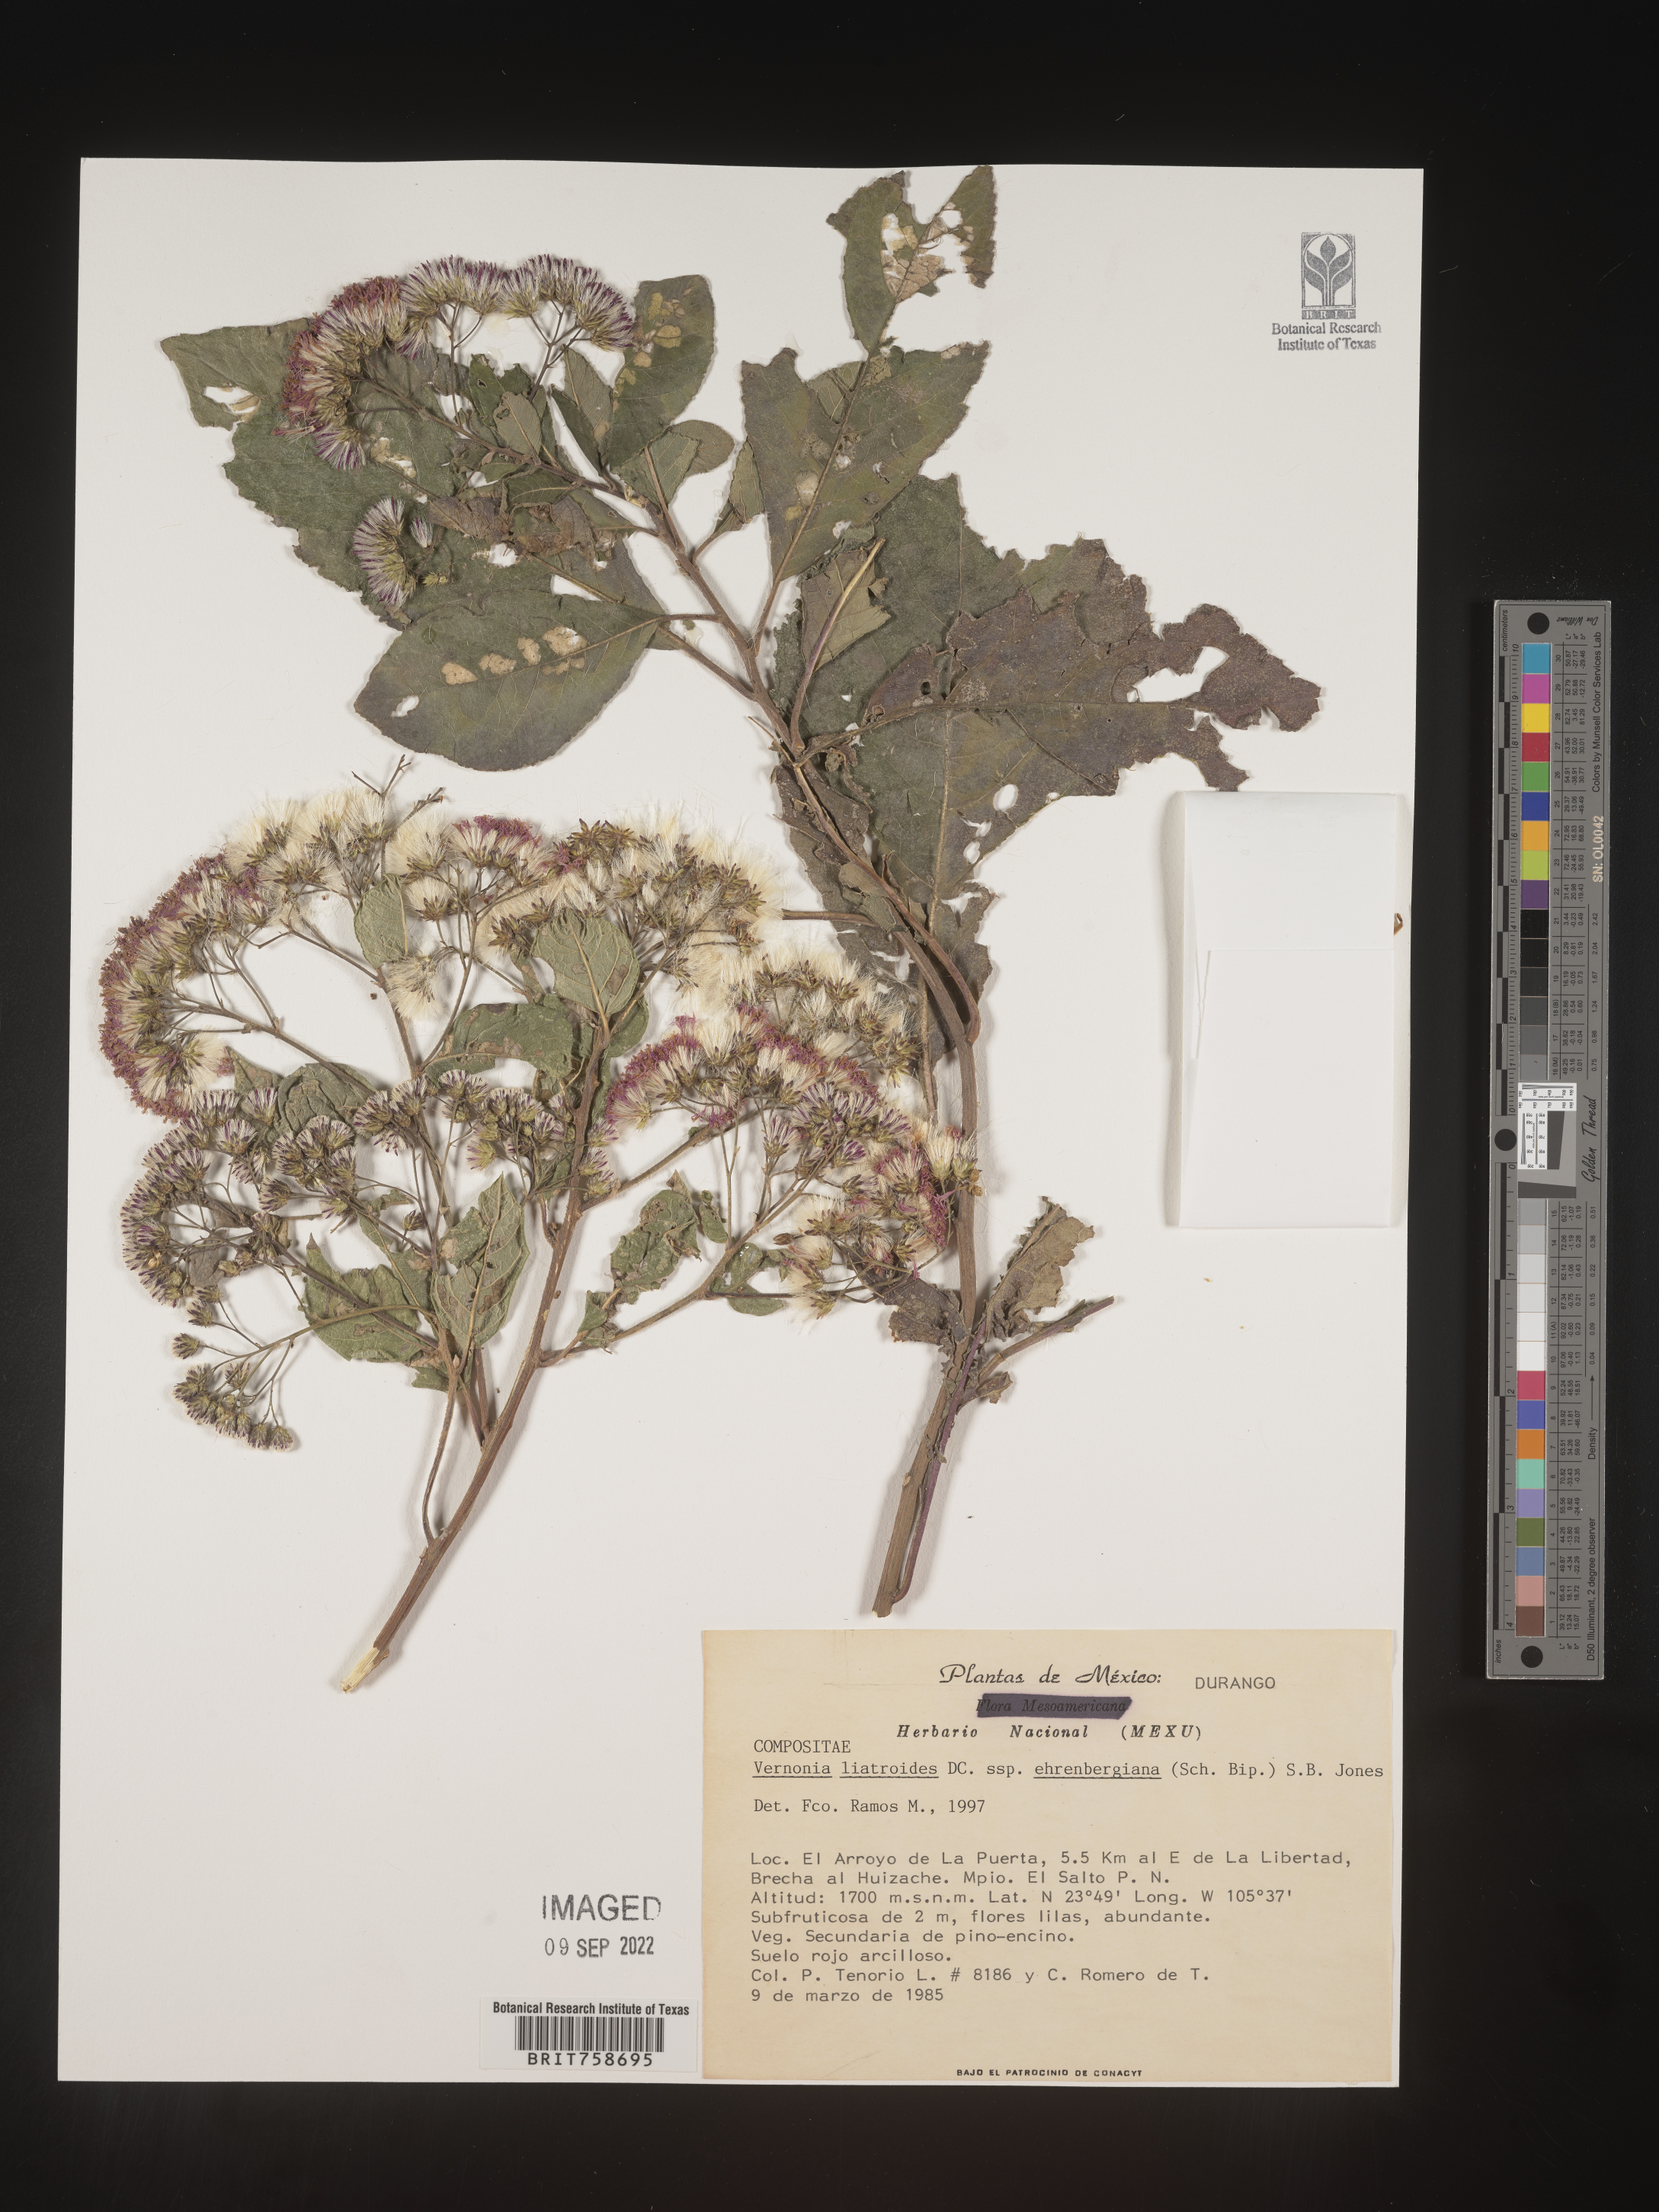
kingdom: Plantae
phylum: Tracheophyta
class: Magnoliopsida
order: Asterales
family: Asteraceae
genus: Vernonia
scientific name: Vernonia
